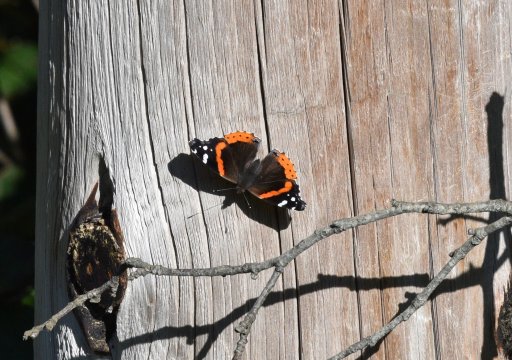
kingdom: Animalia
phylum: Arthropoda
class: Insecta
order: Lepidoptera
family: Nymphalidae
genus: Vanessa
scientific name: Vanessa atalanta
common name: Red Admiral
